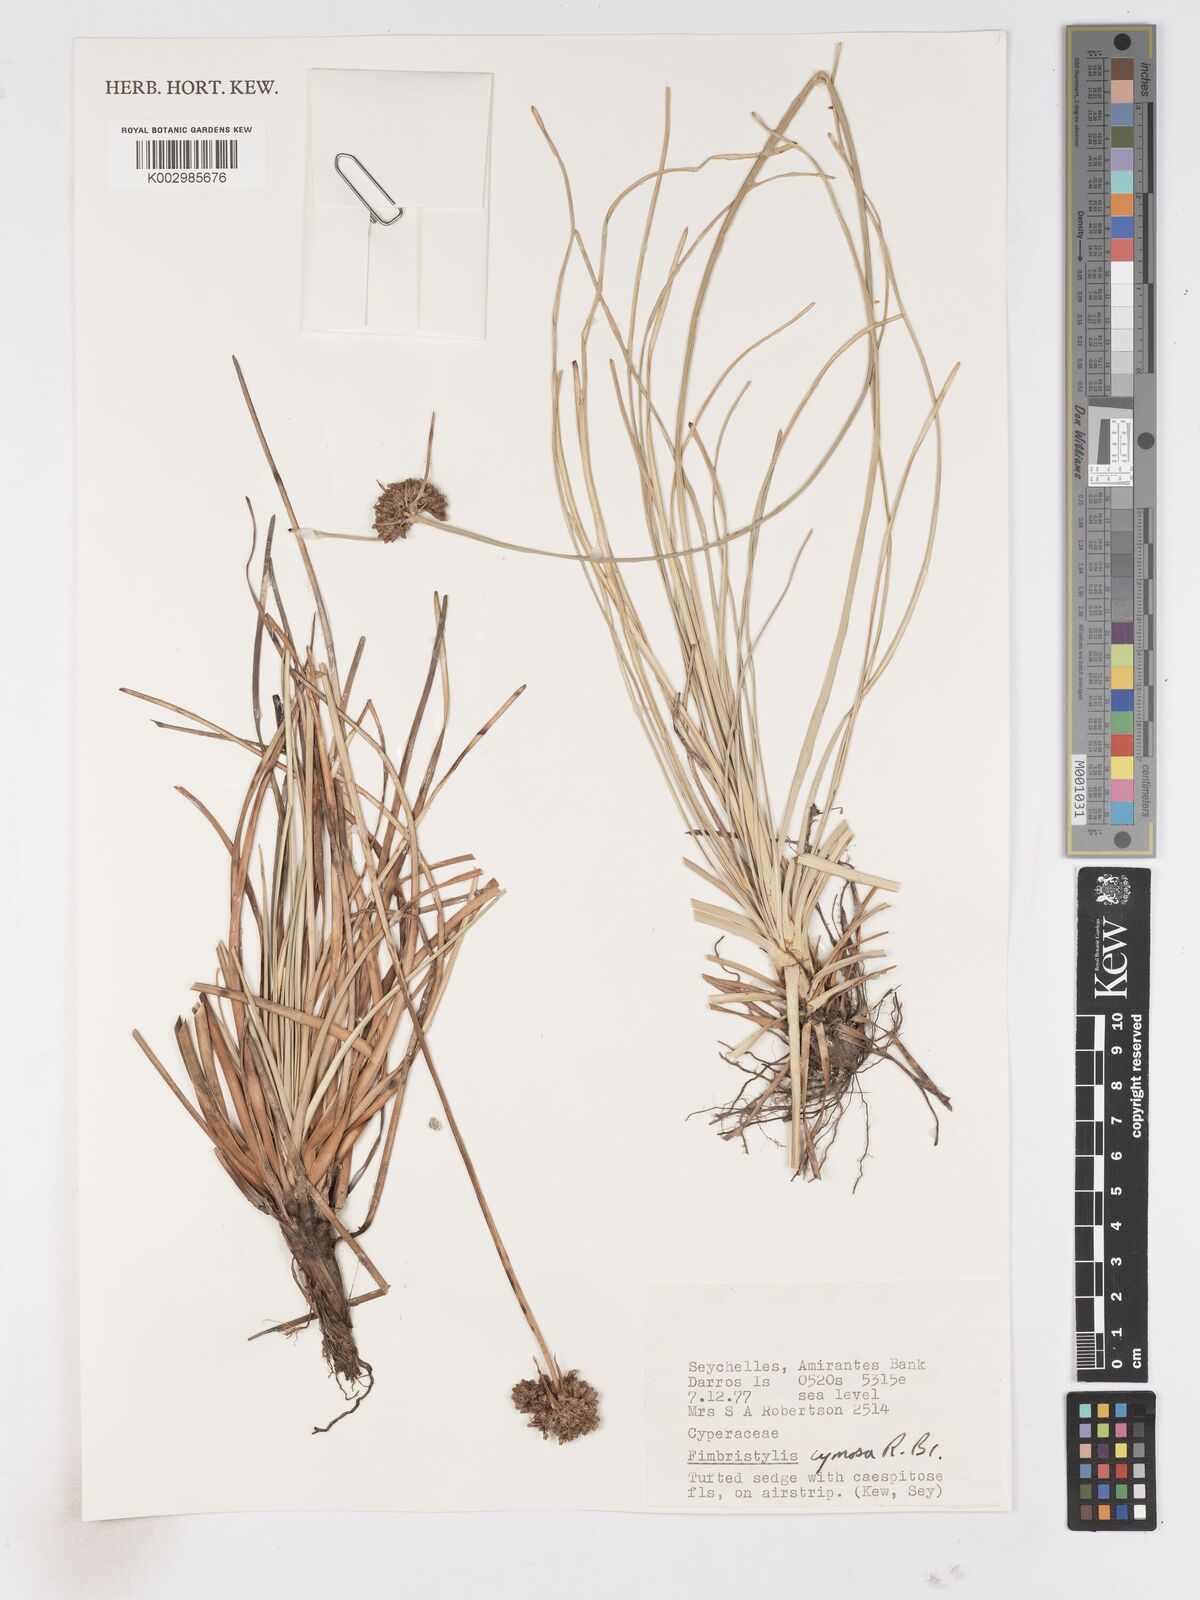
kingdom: Plantae
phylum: Tracheophyta
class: Liliopsida
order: Poales
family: Cyperaceae
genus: Fimbristylis
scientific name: Fimbristylis cymosa
